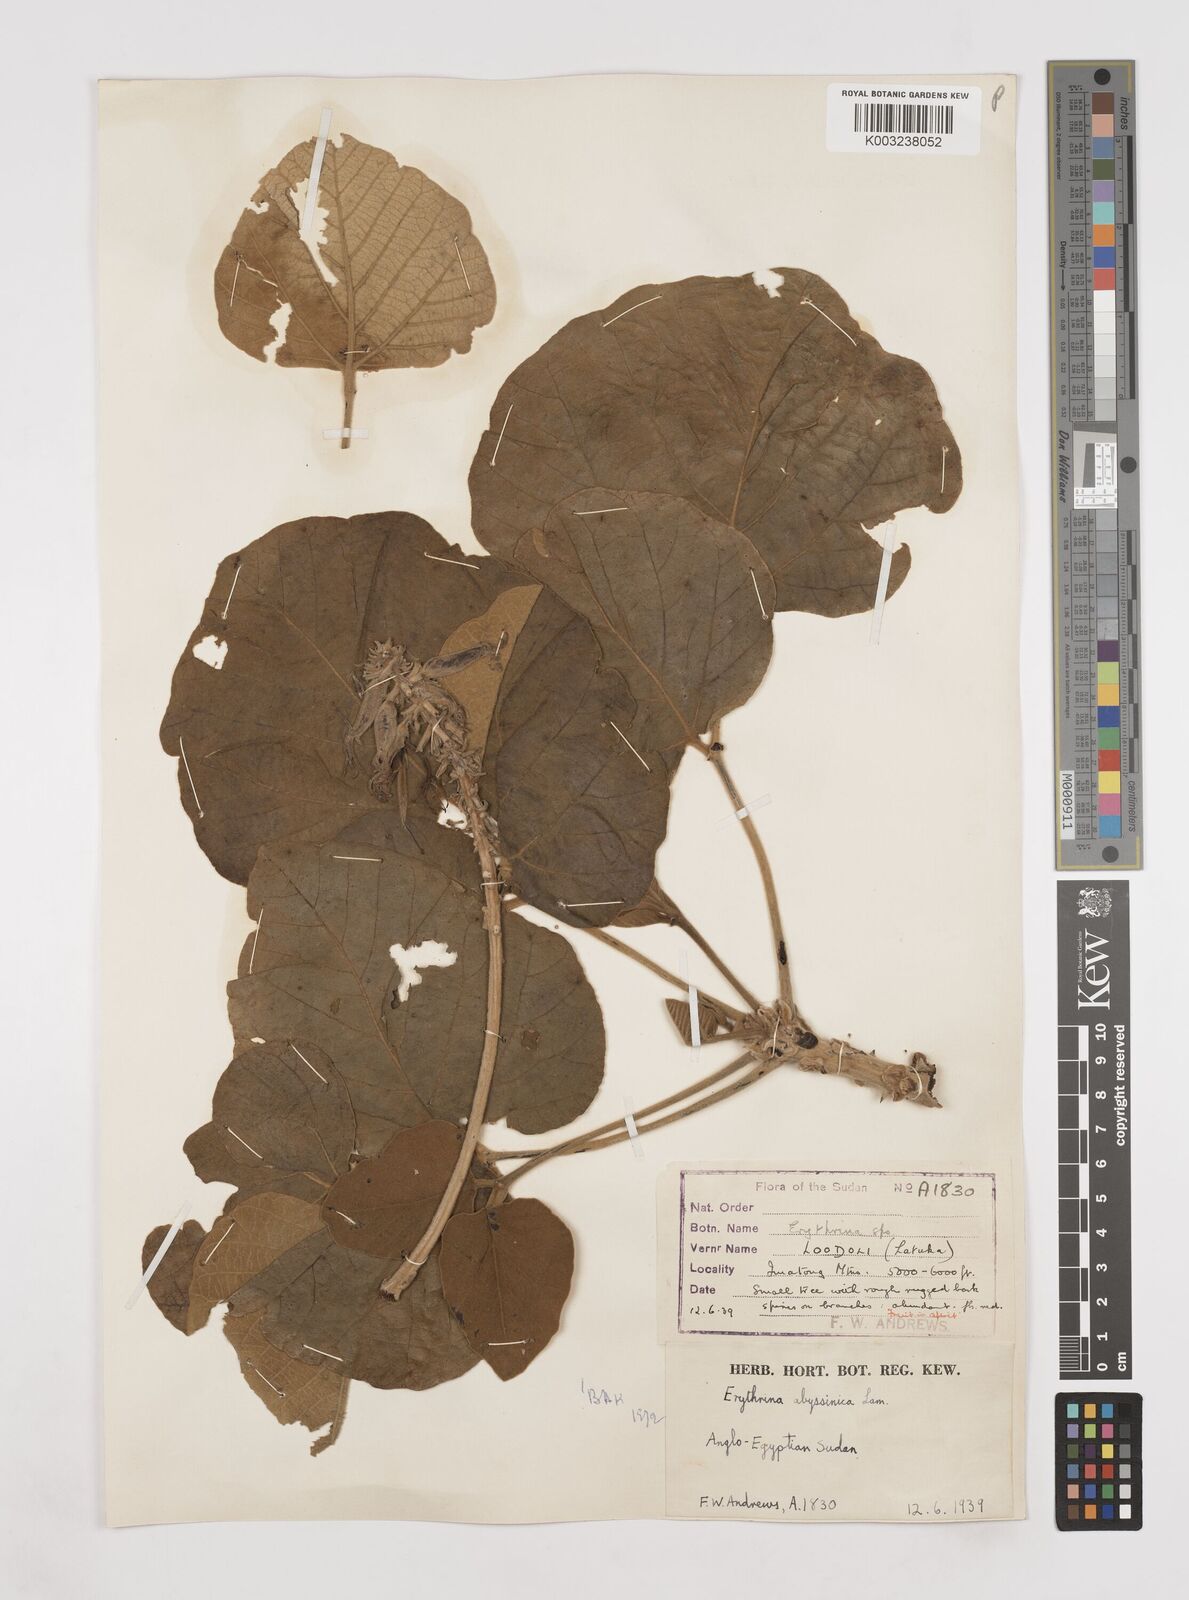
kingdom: Plantae
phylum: Tracheophyta
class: Magnoliopsida
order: Fabales
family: Fabaceae
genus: Erythrina
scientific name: Erythrina abyssinica
